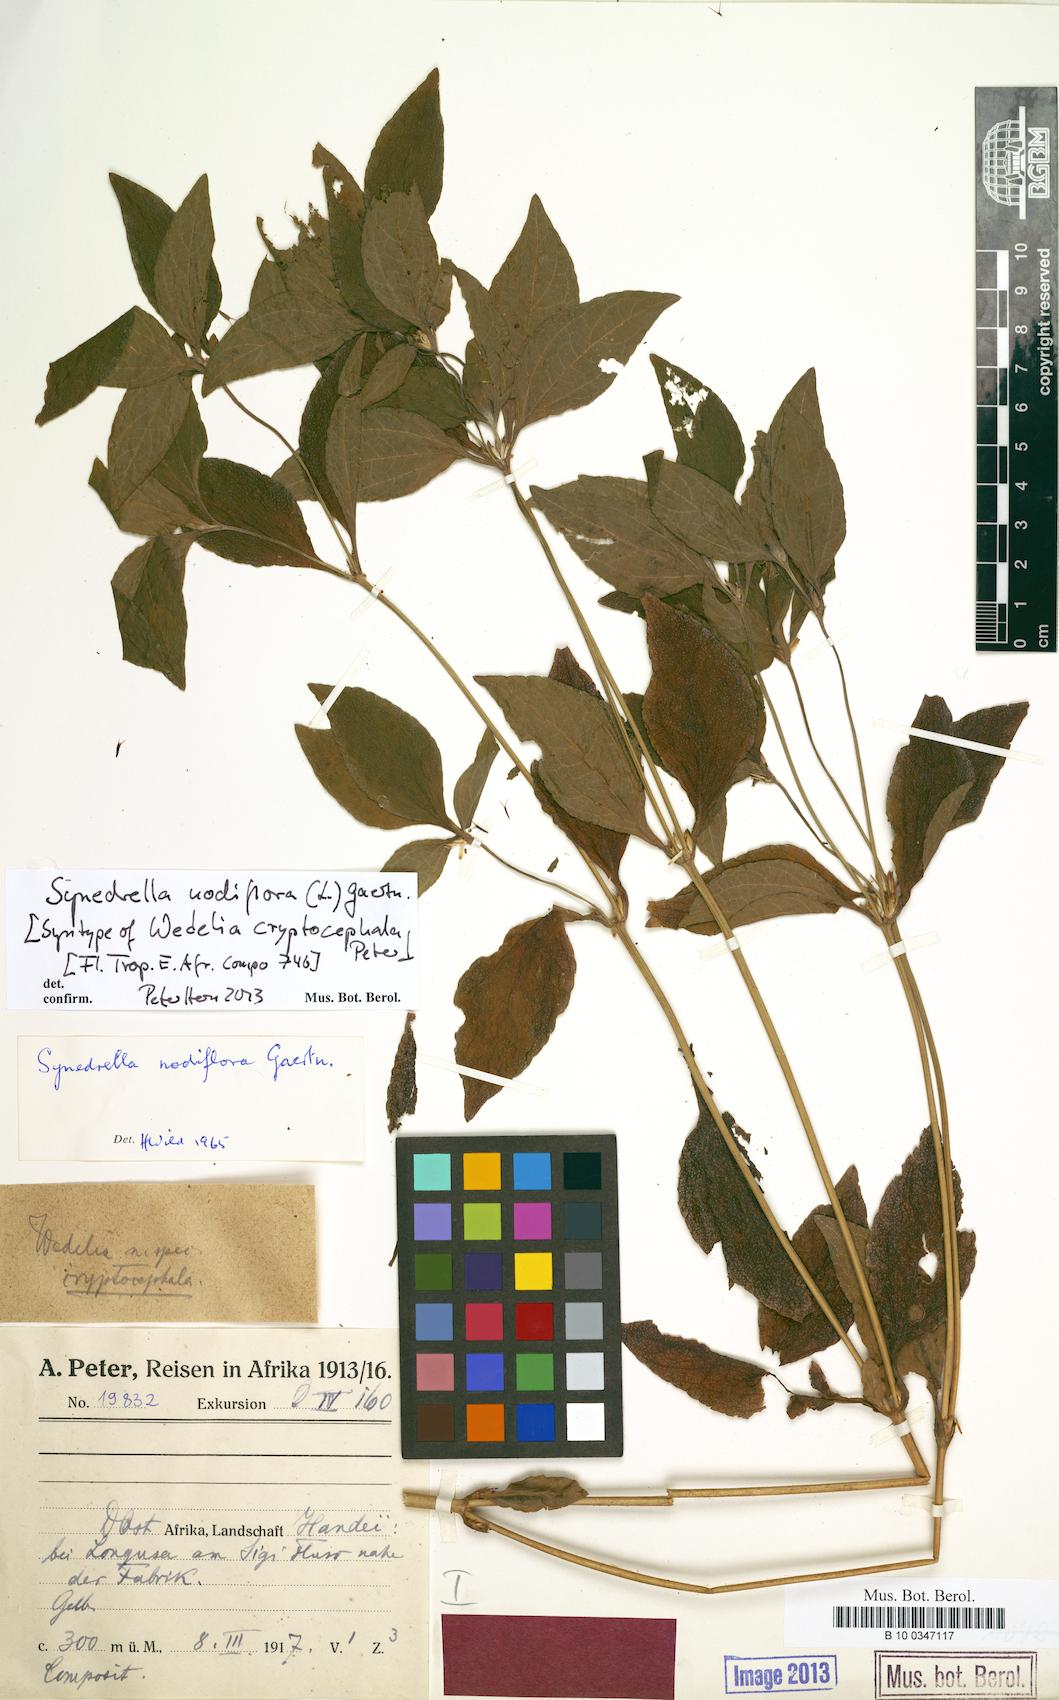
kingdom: Plantae
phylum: Tracheophyta
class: Magnoliopsida
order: Asterales
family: Asteraceae
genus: Synedrella
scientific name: Synedrella nodiflora
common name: Nodeweed
